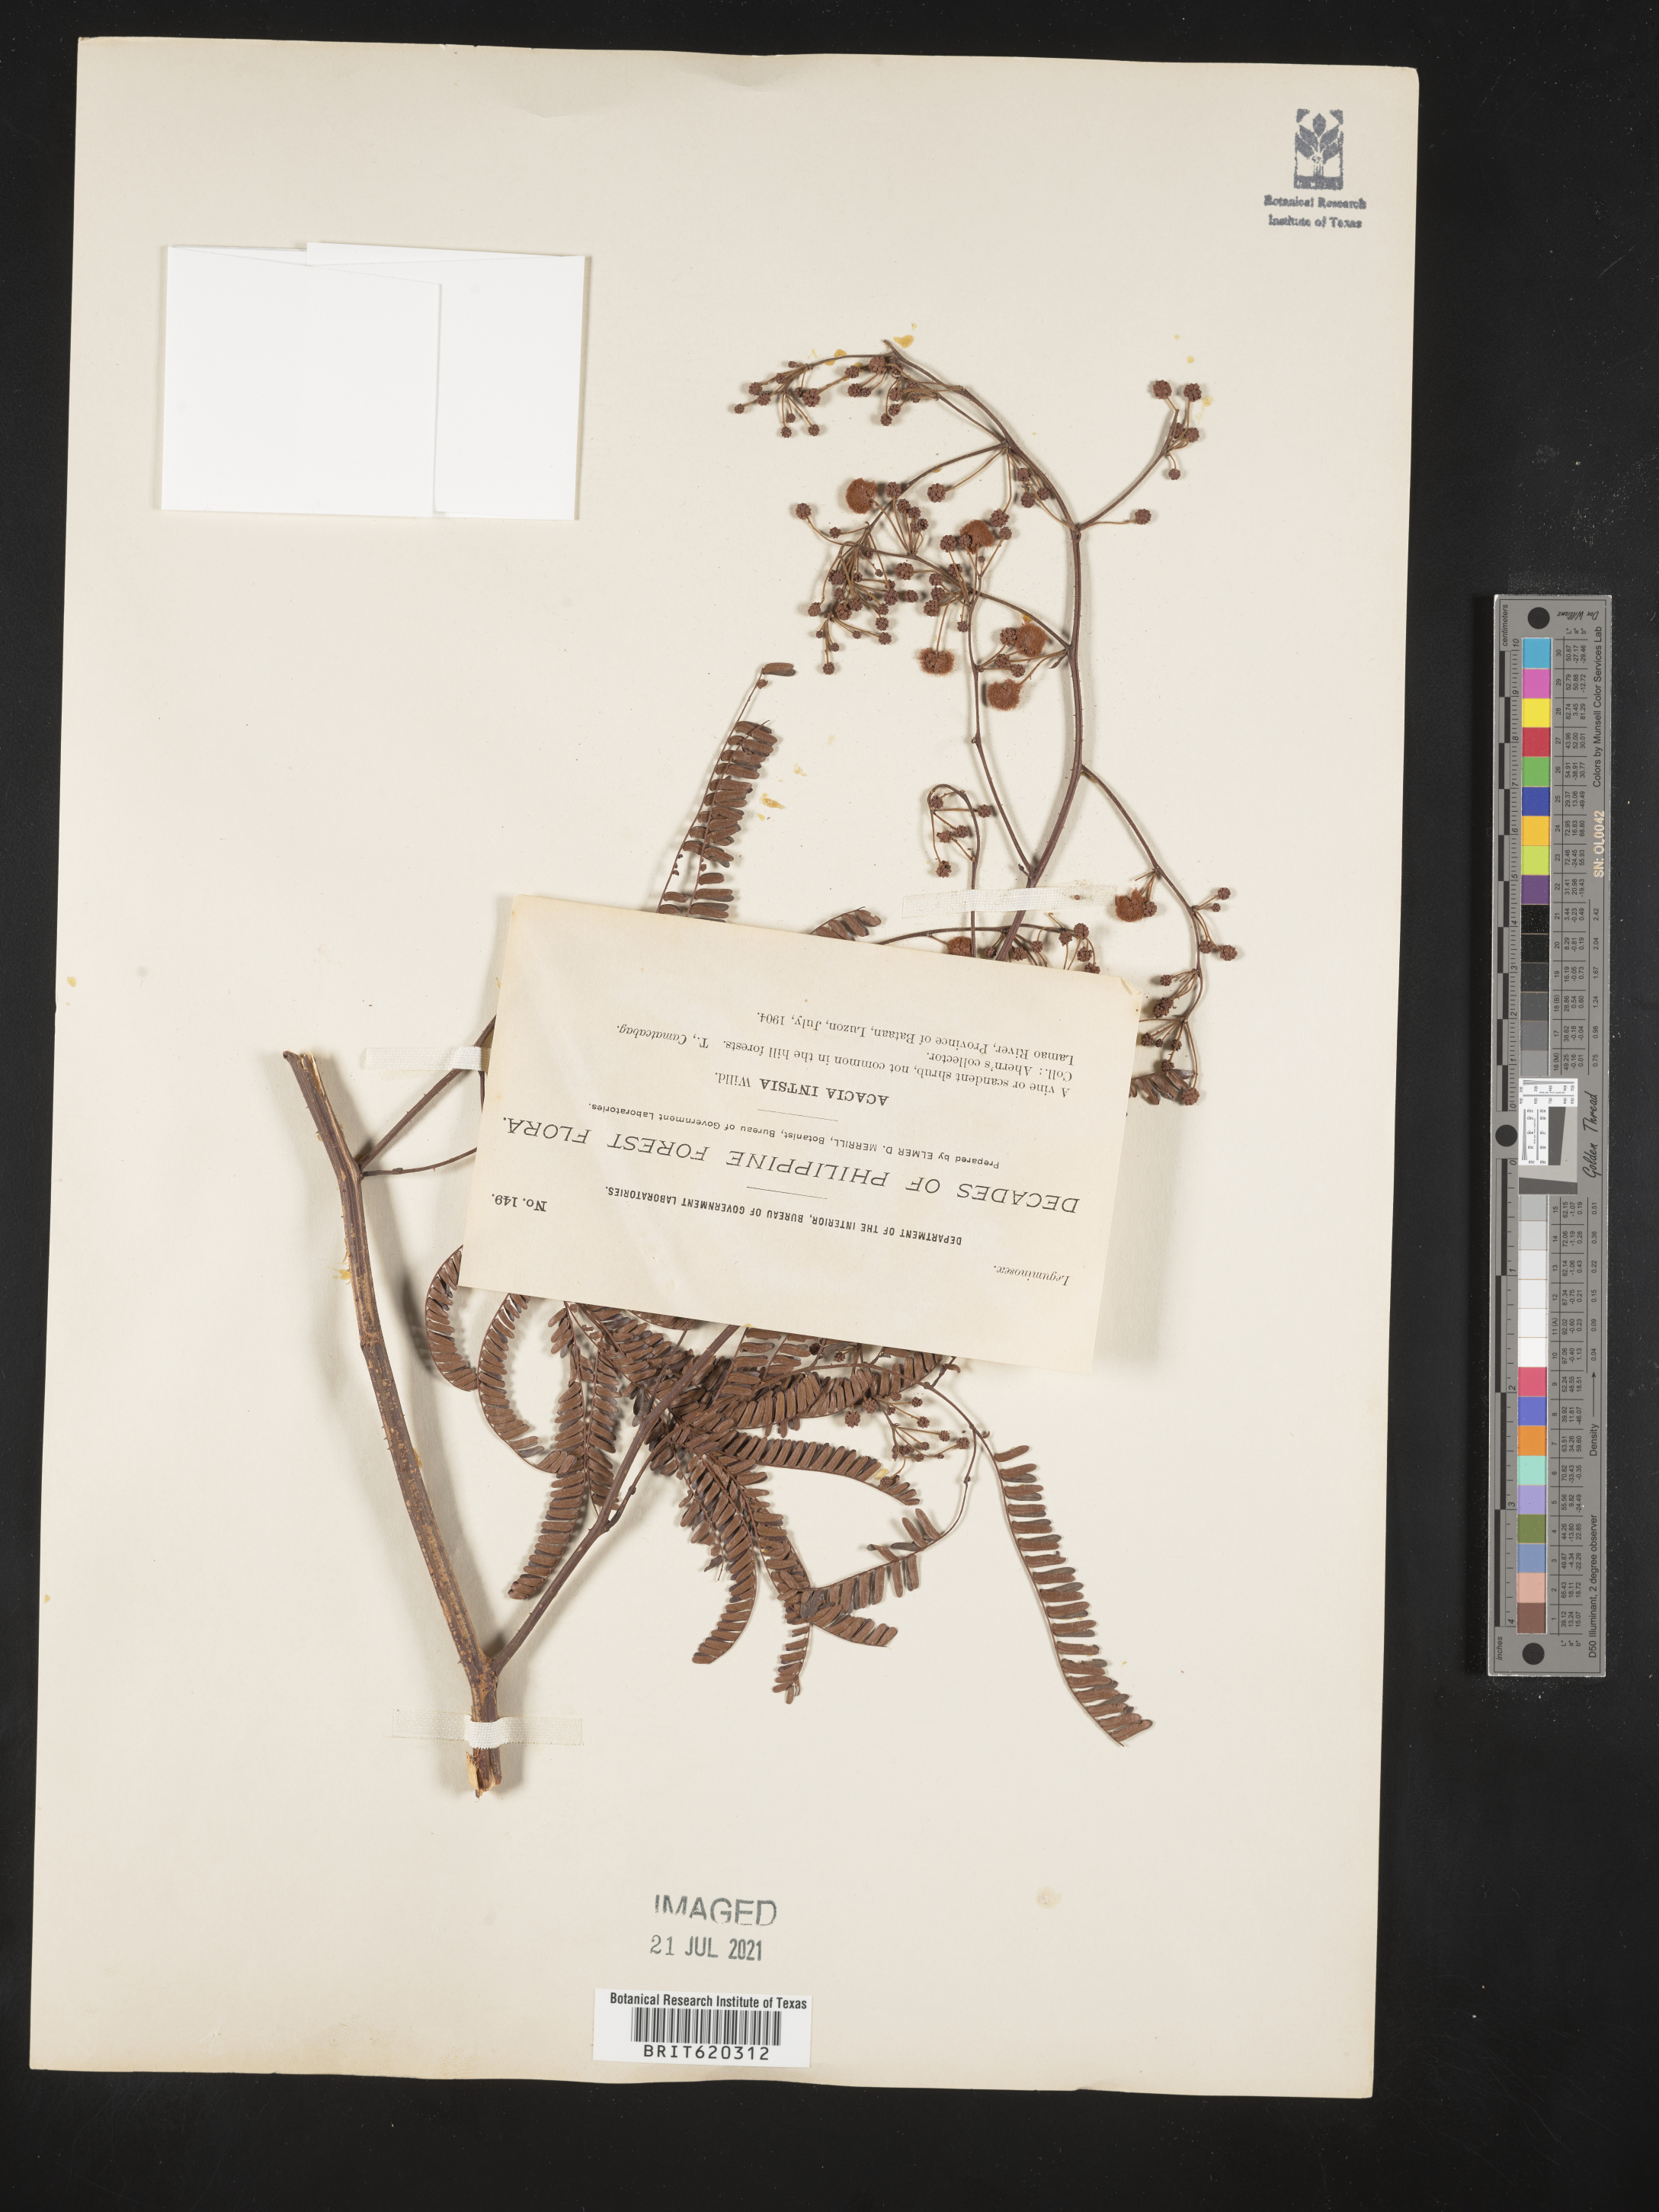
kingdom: Plantae
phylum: Tracheophyta
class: Magnoliopsida
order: Fabales
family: Fabaceae
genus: Senegalia
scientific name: Senegalia intsia
